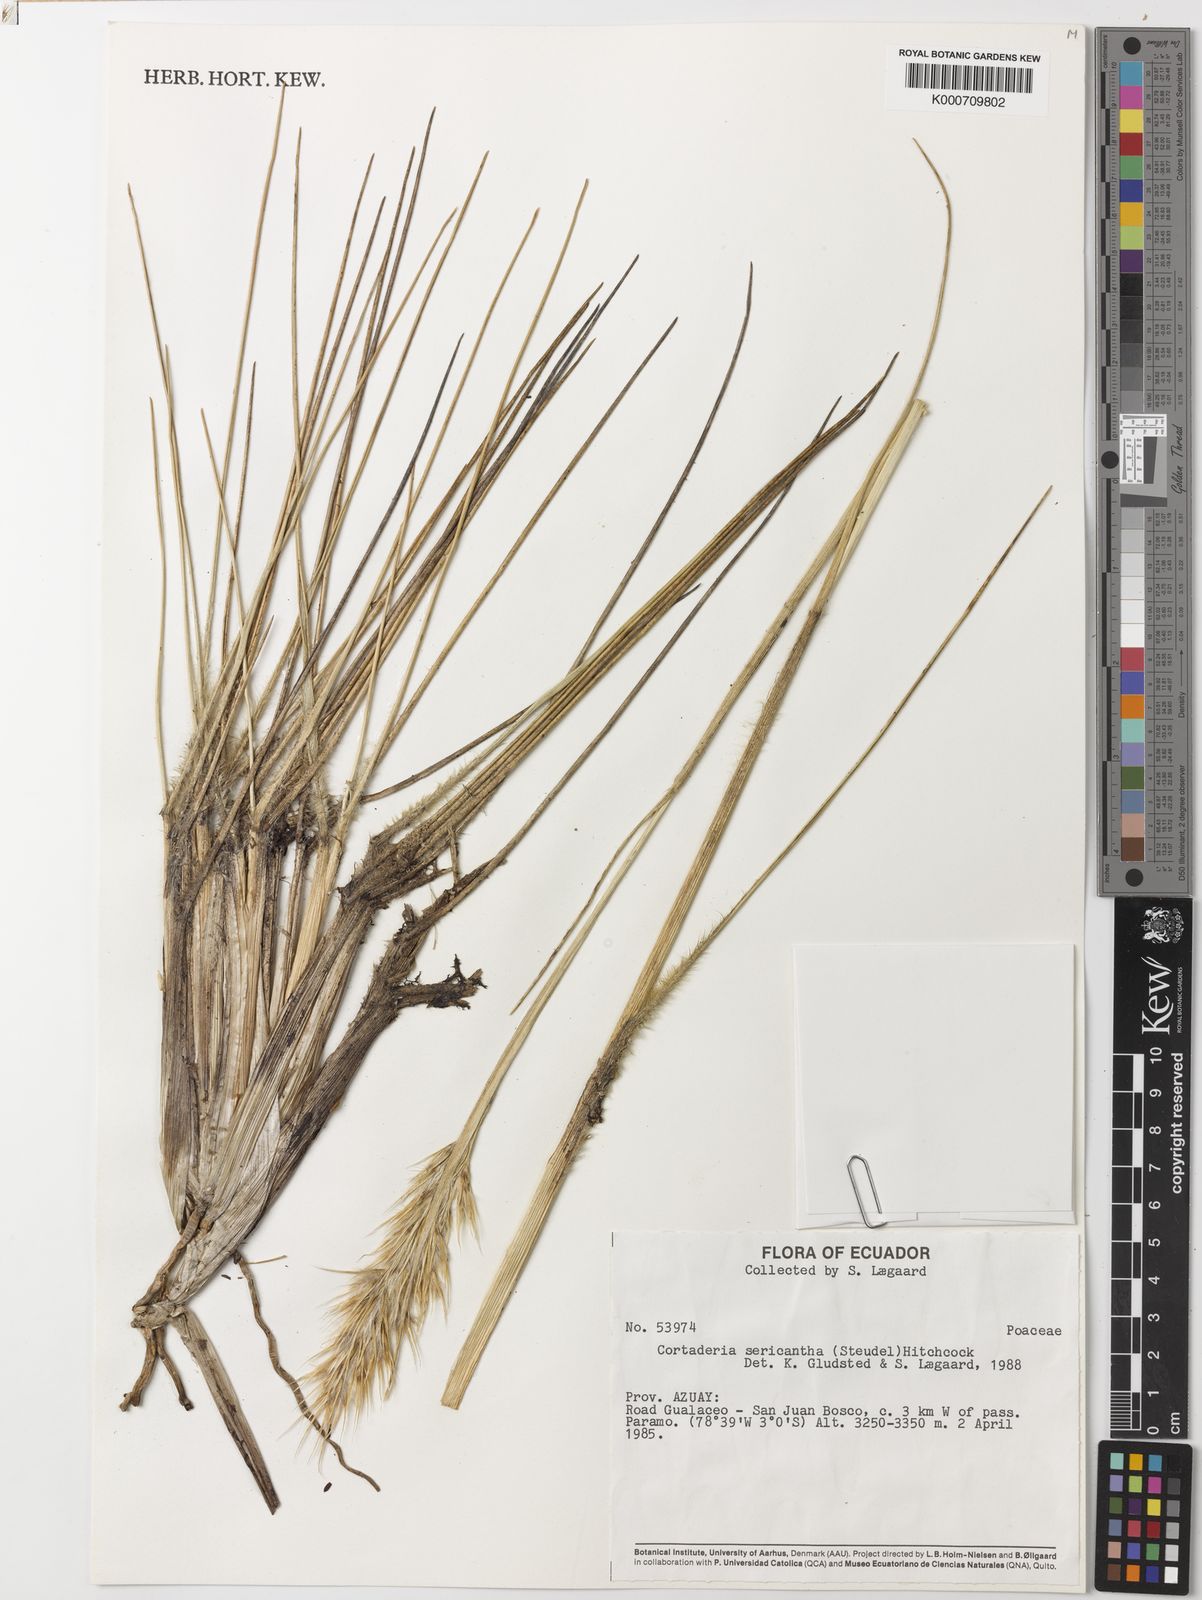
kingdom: Plantae
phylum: Tracheophyta
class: Liliopsida
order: Poales
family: Poaceae
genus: Cortaderia
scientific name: Cortaderia sericantha
